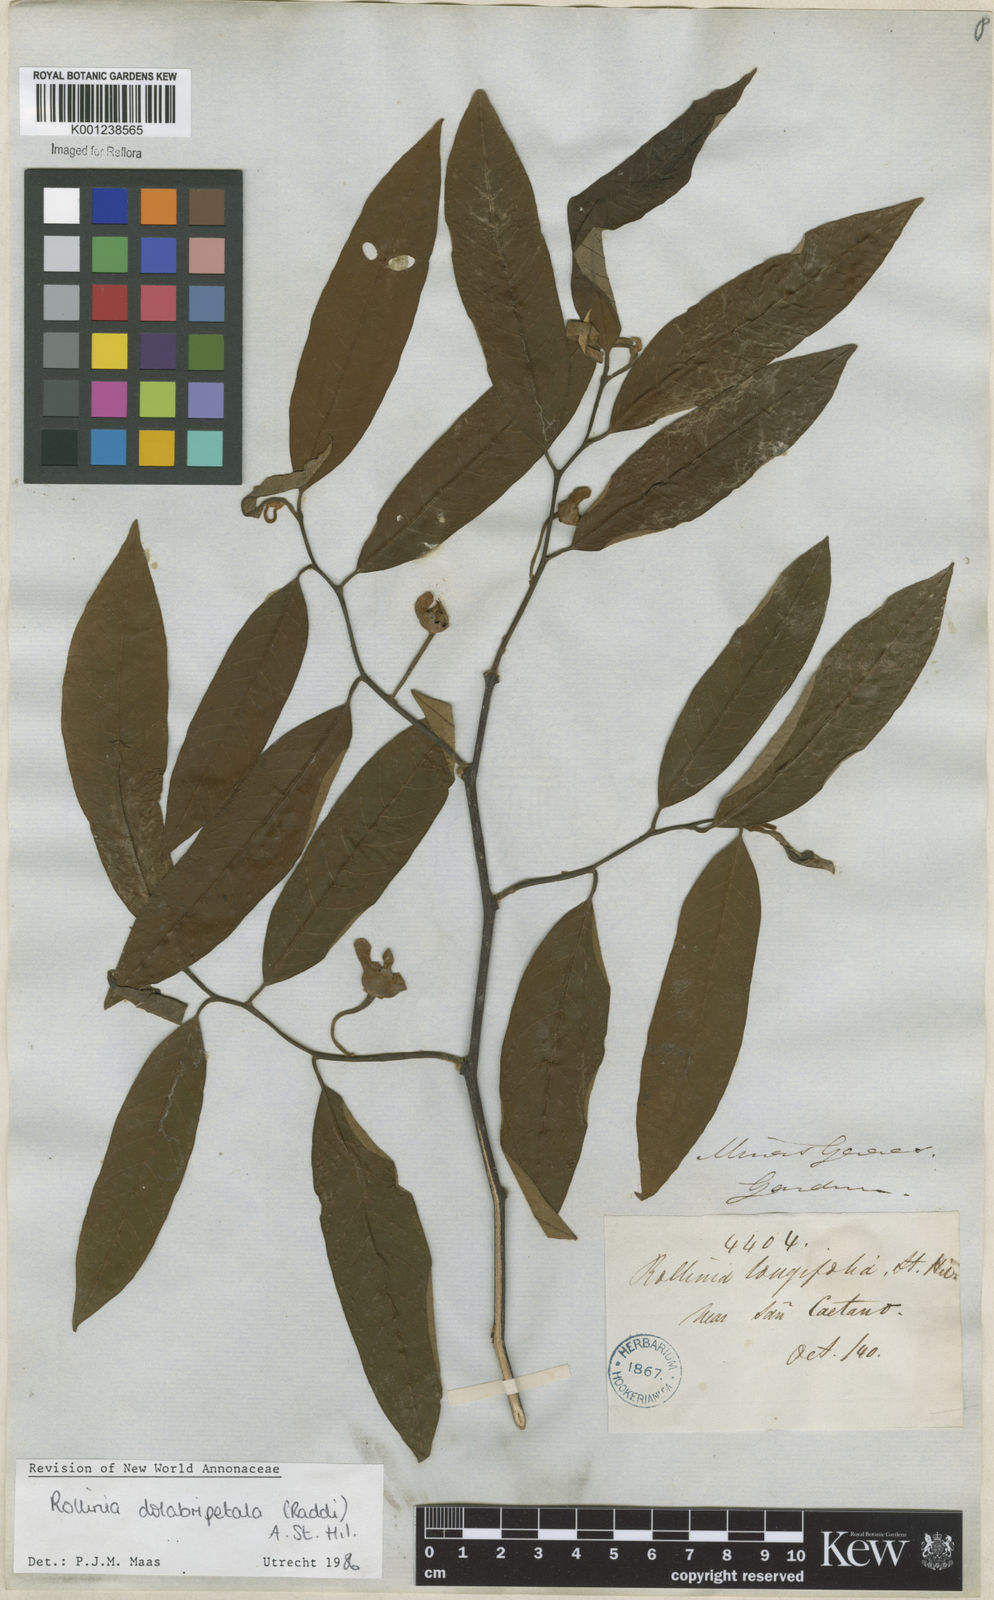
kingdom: Plantae
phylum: Tracheophyta
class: Magnoliopsida
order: Magnoliales
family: Annonaceae
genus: Annona
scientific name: Annona
